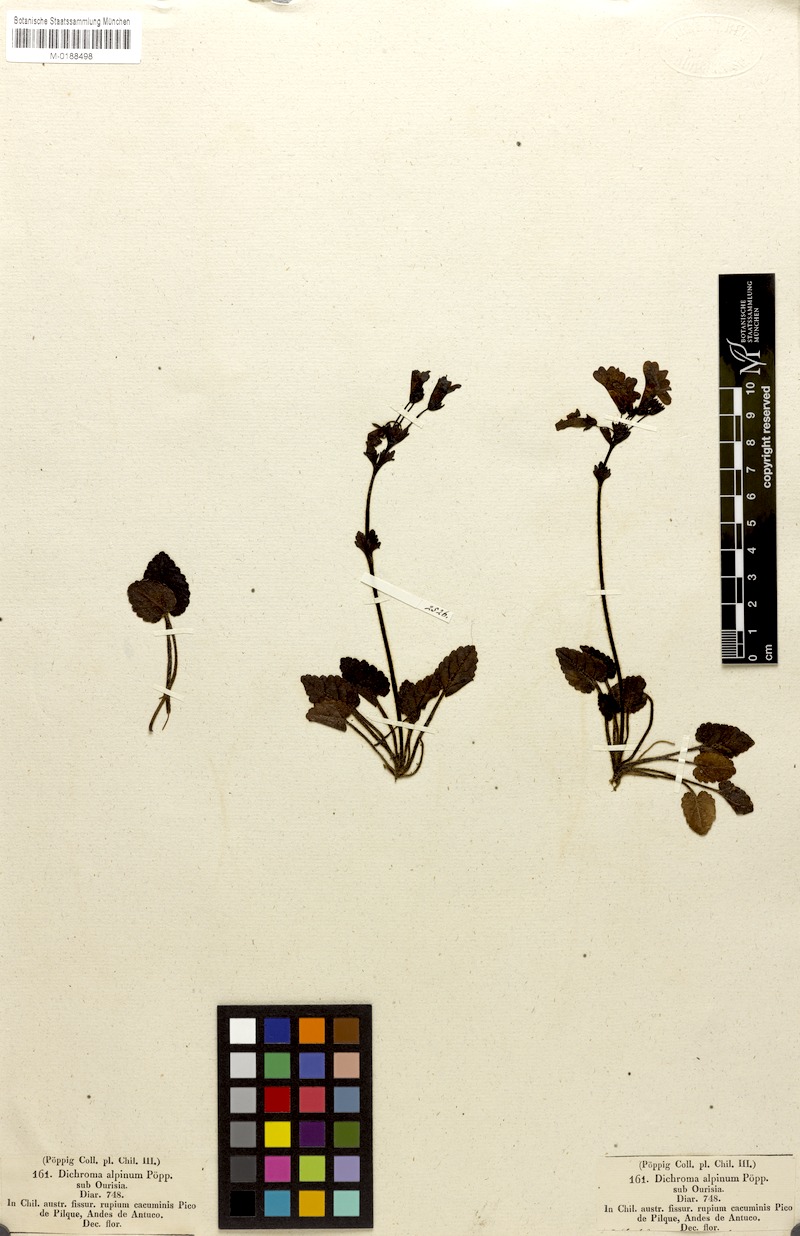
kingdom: Plantae
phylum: Tracheophyta
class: Magnoliopsida
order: Lamiales
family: Plantaginaceae
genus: Ourisia
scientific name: Ourisia alpina
